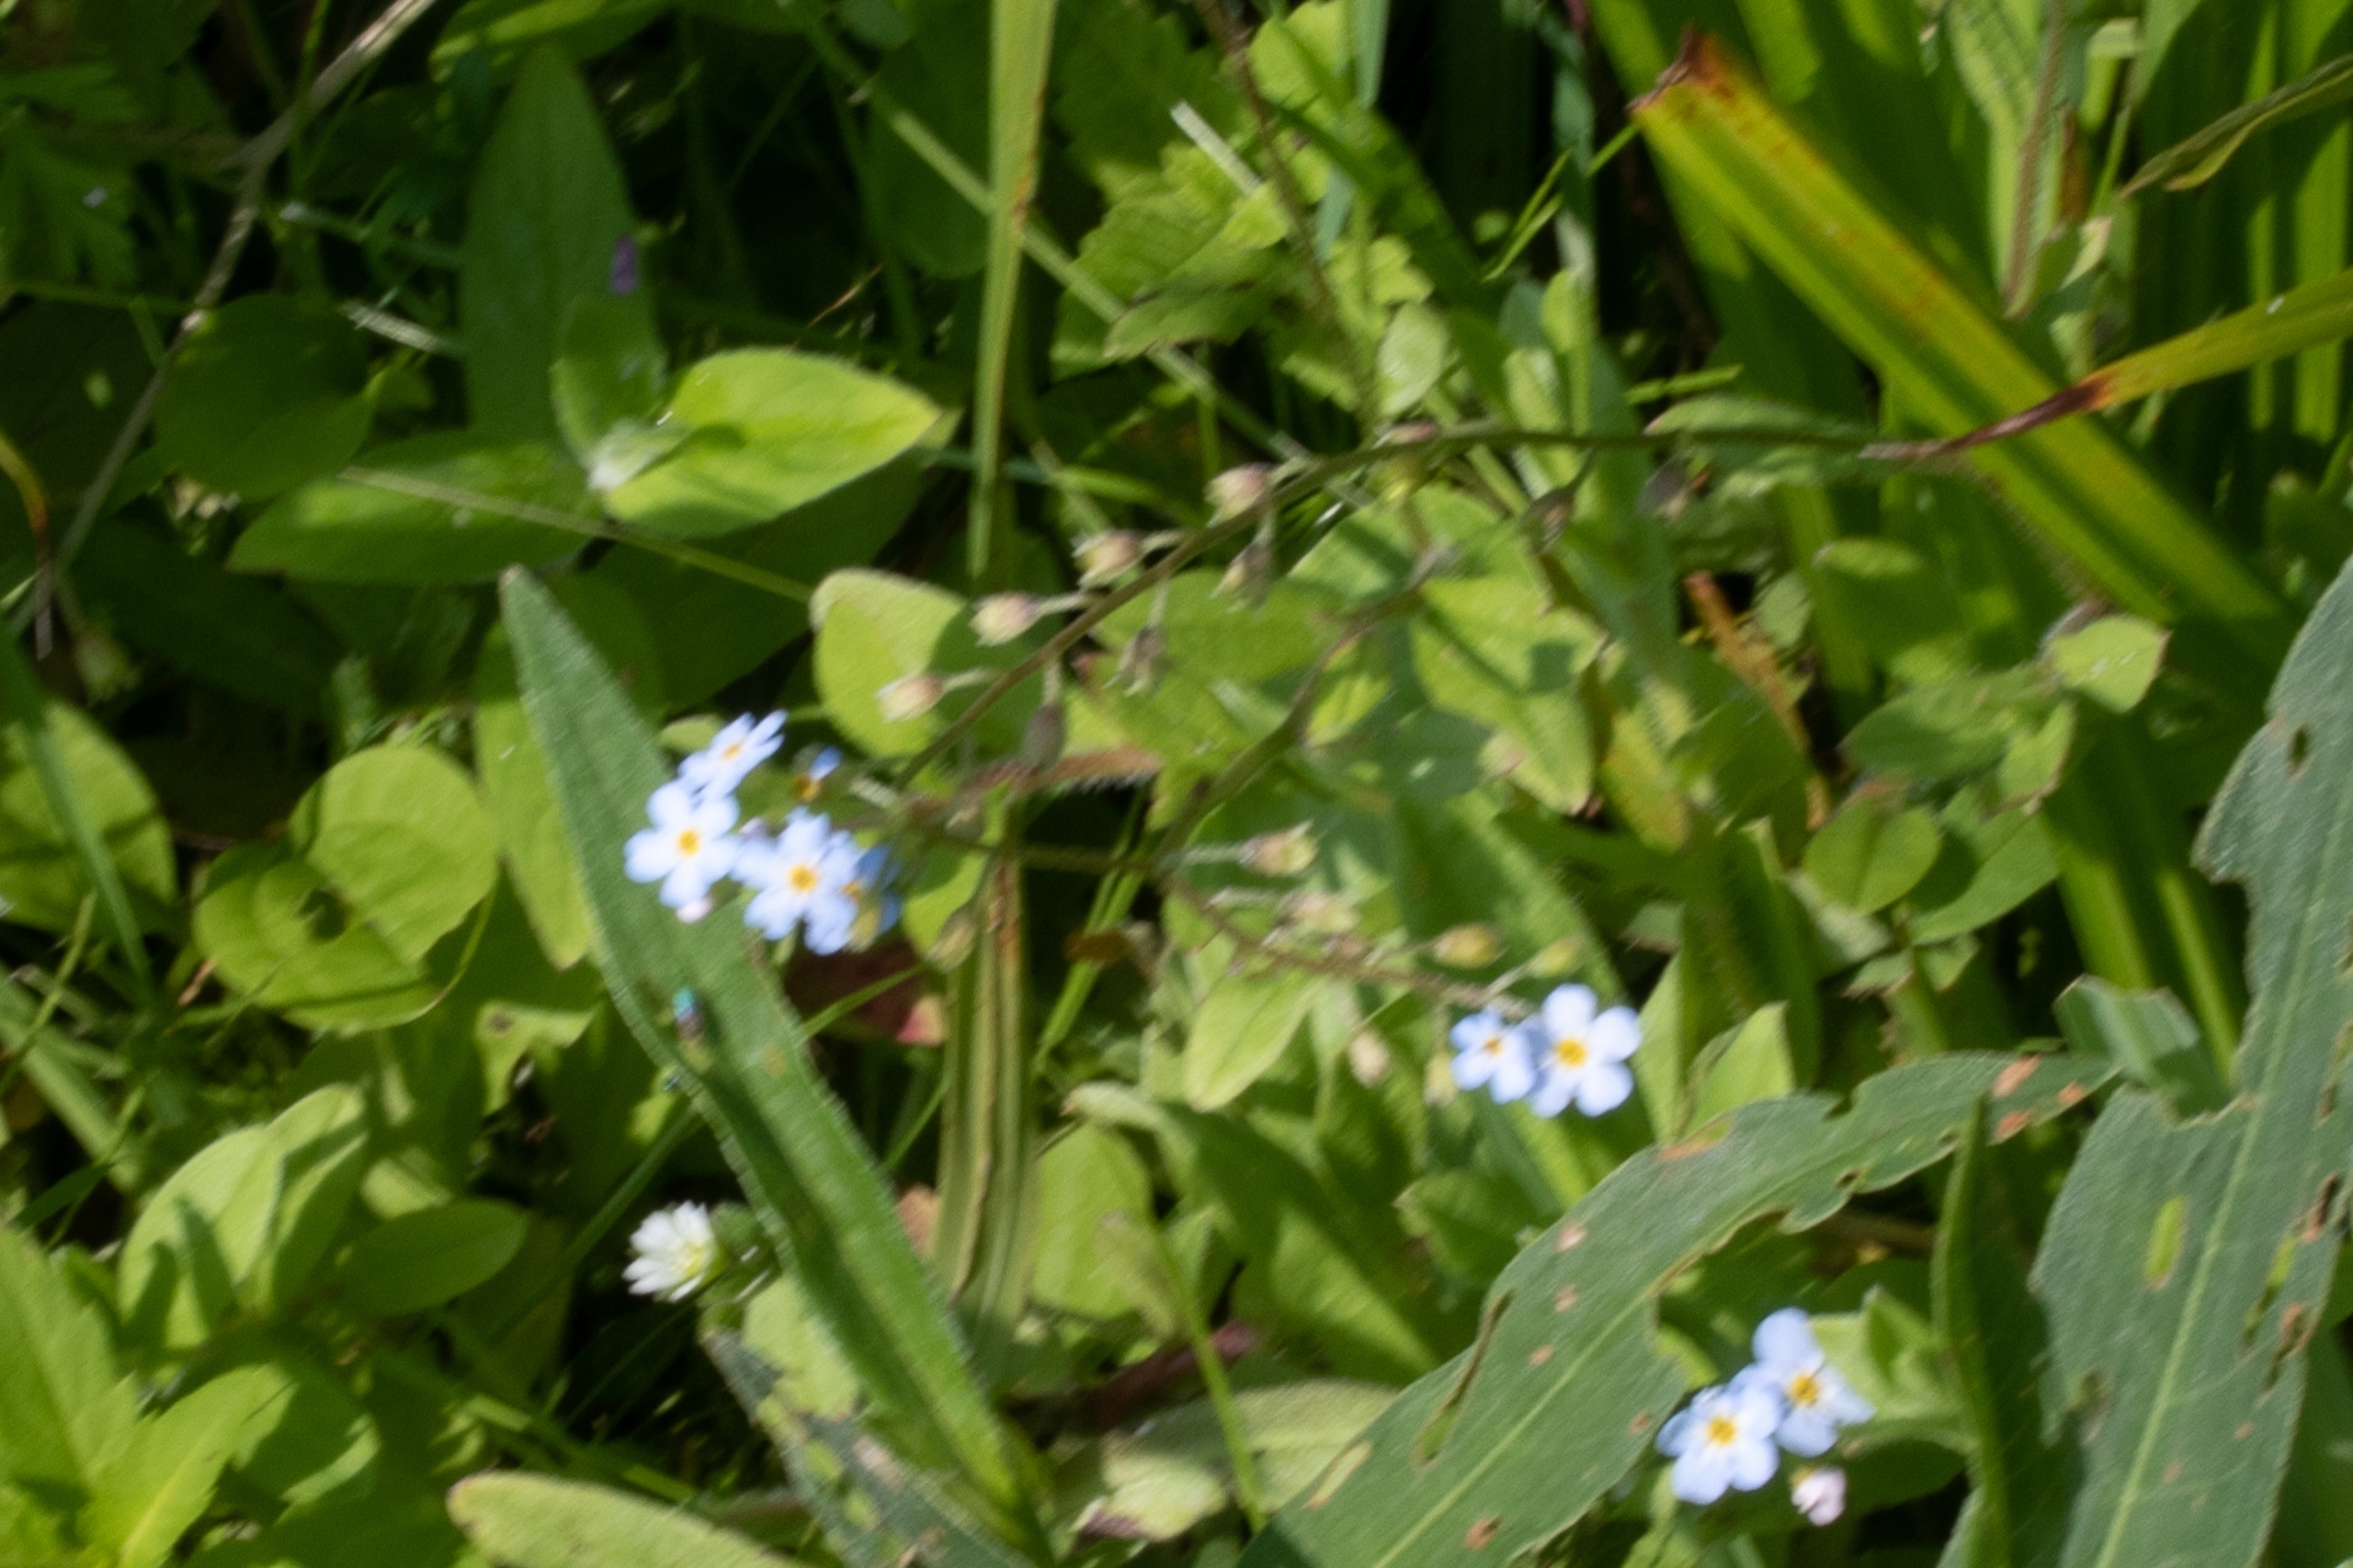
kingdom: Plantae
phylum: Tracheophyta
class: Magnoliopsida
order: Boraginales
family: Boraginaceae
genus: Myosotis
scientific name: Myosotis scorpioides
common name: Eng-forglemmigej
